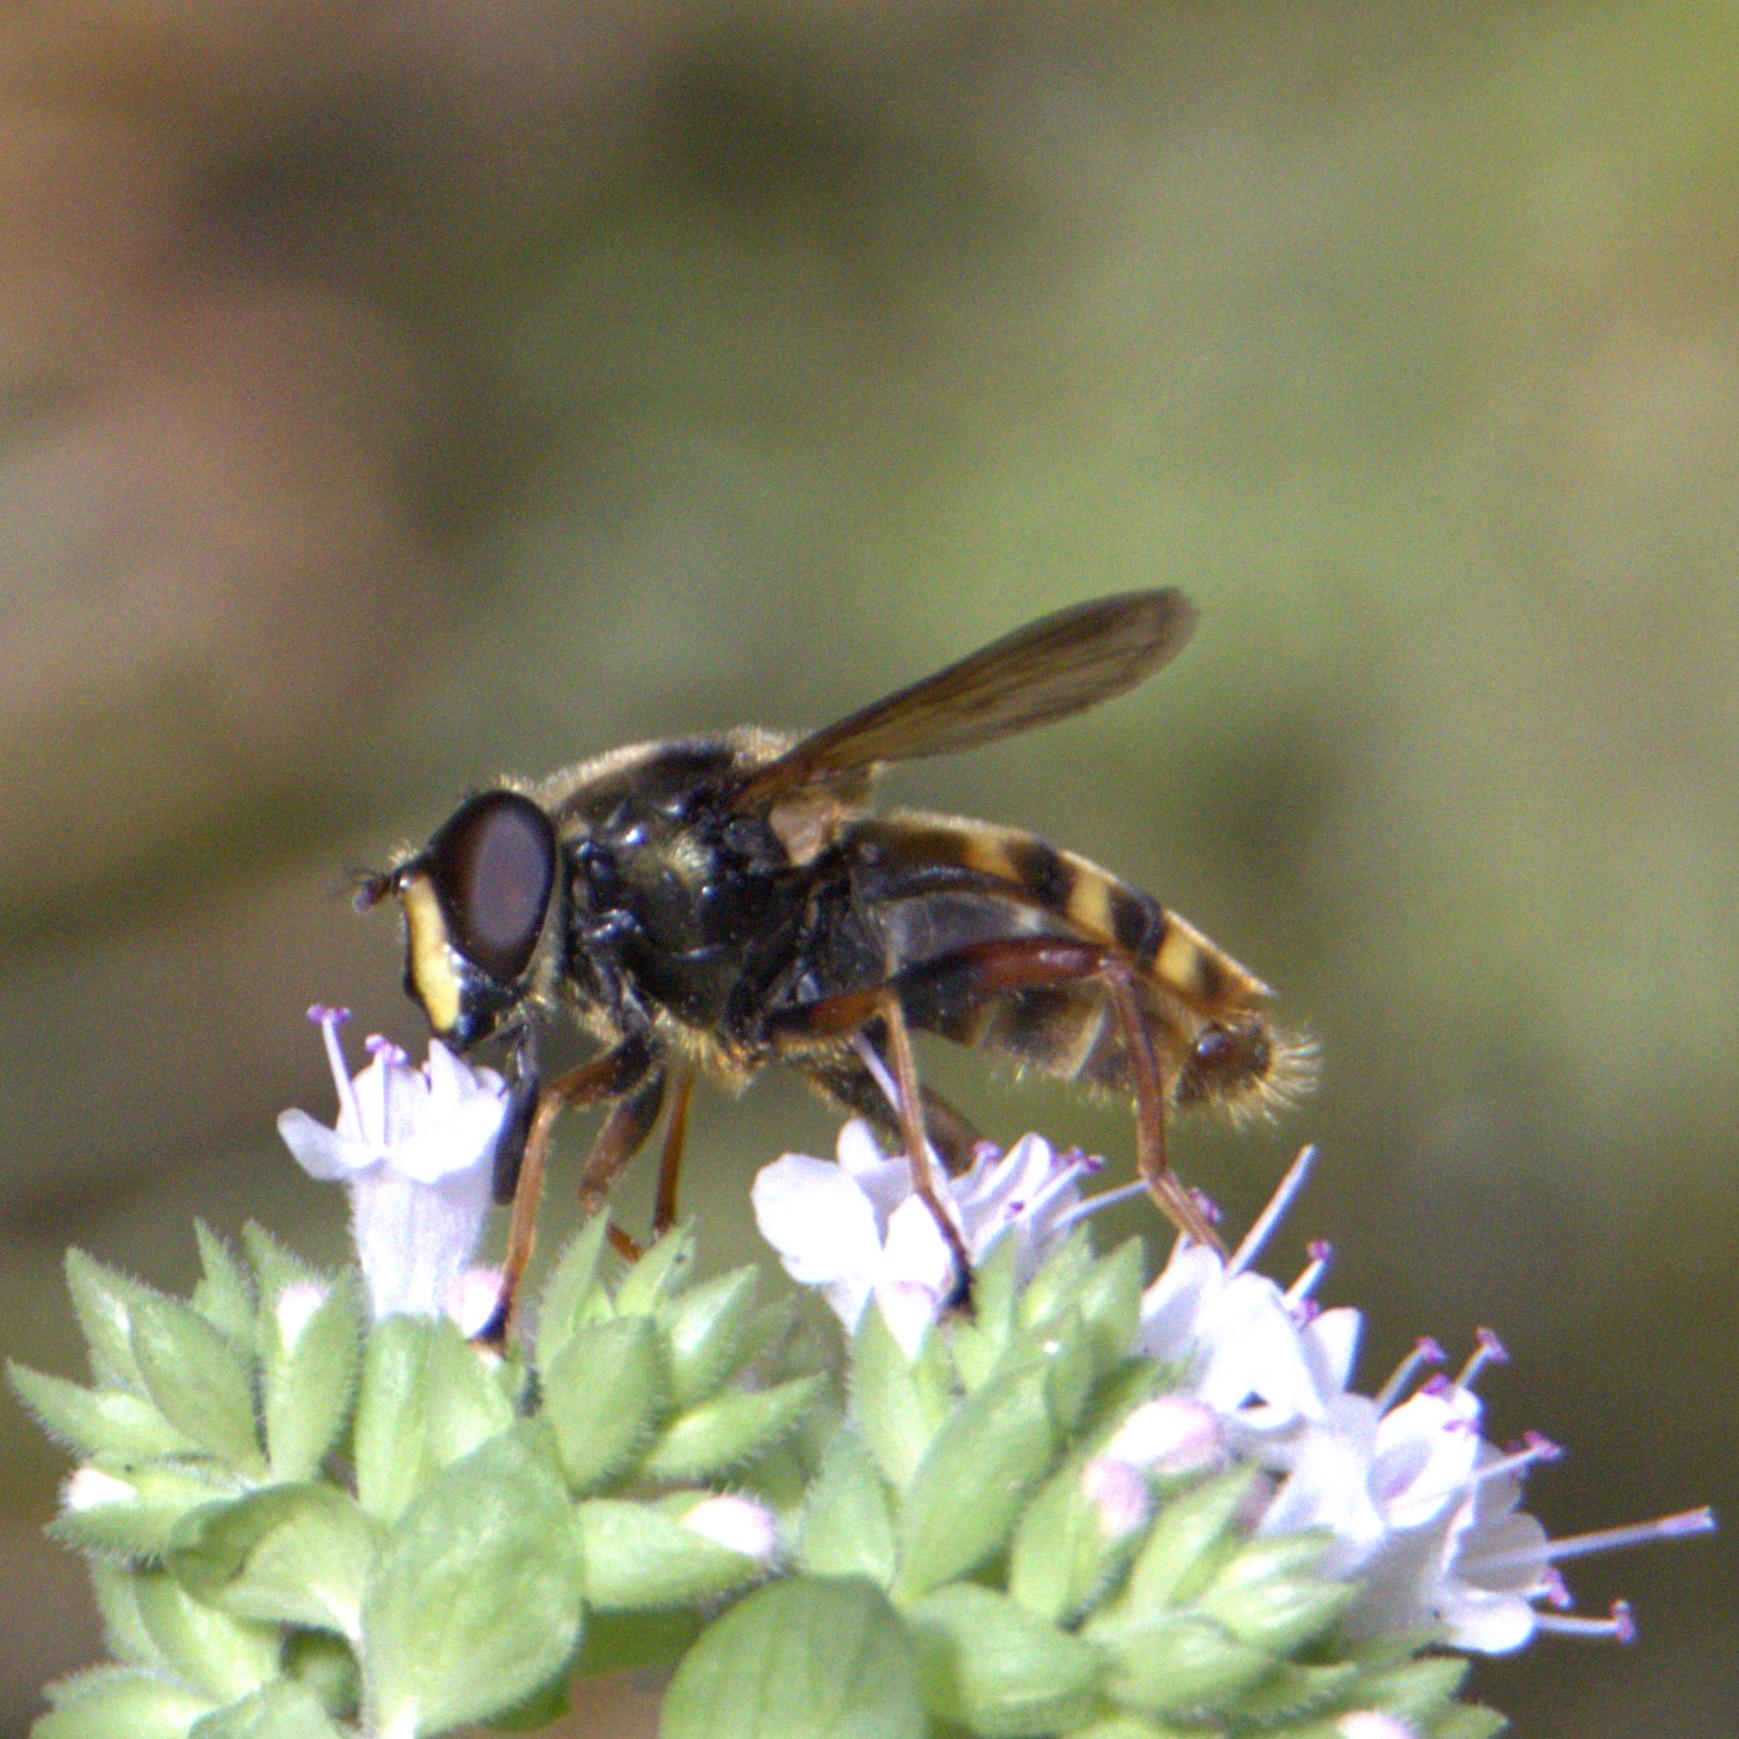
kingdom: Animalia
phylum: Arthropoda
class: Insecta
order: Diptera
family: Syrphidae
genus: Sericomyia
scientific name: Sericomyia silentis
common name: Tørve-silkesvirreflue
